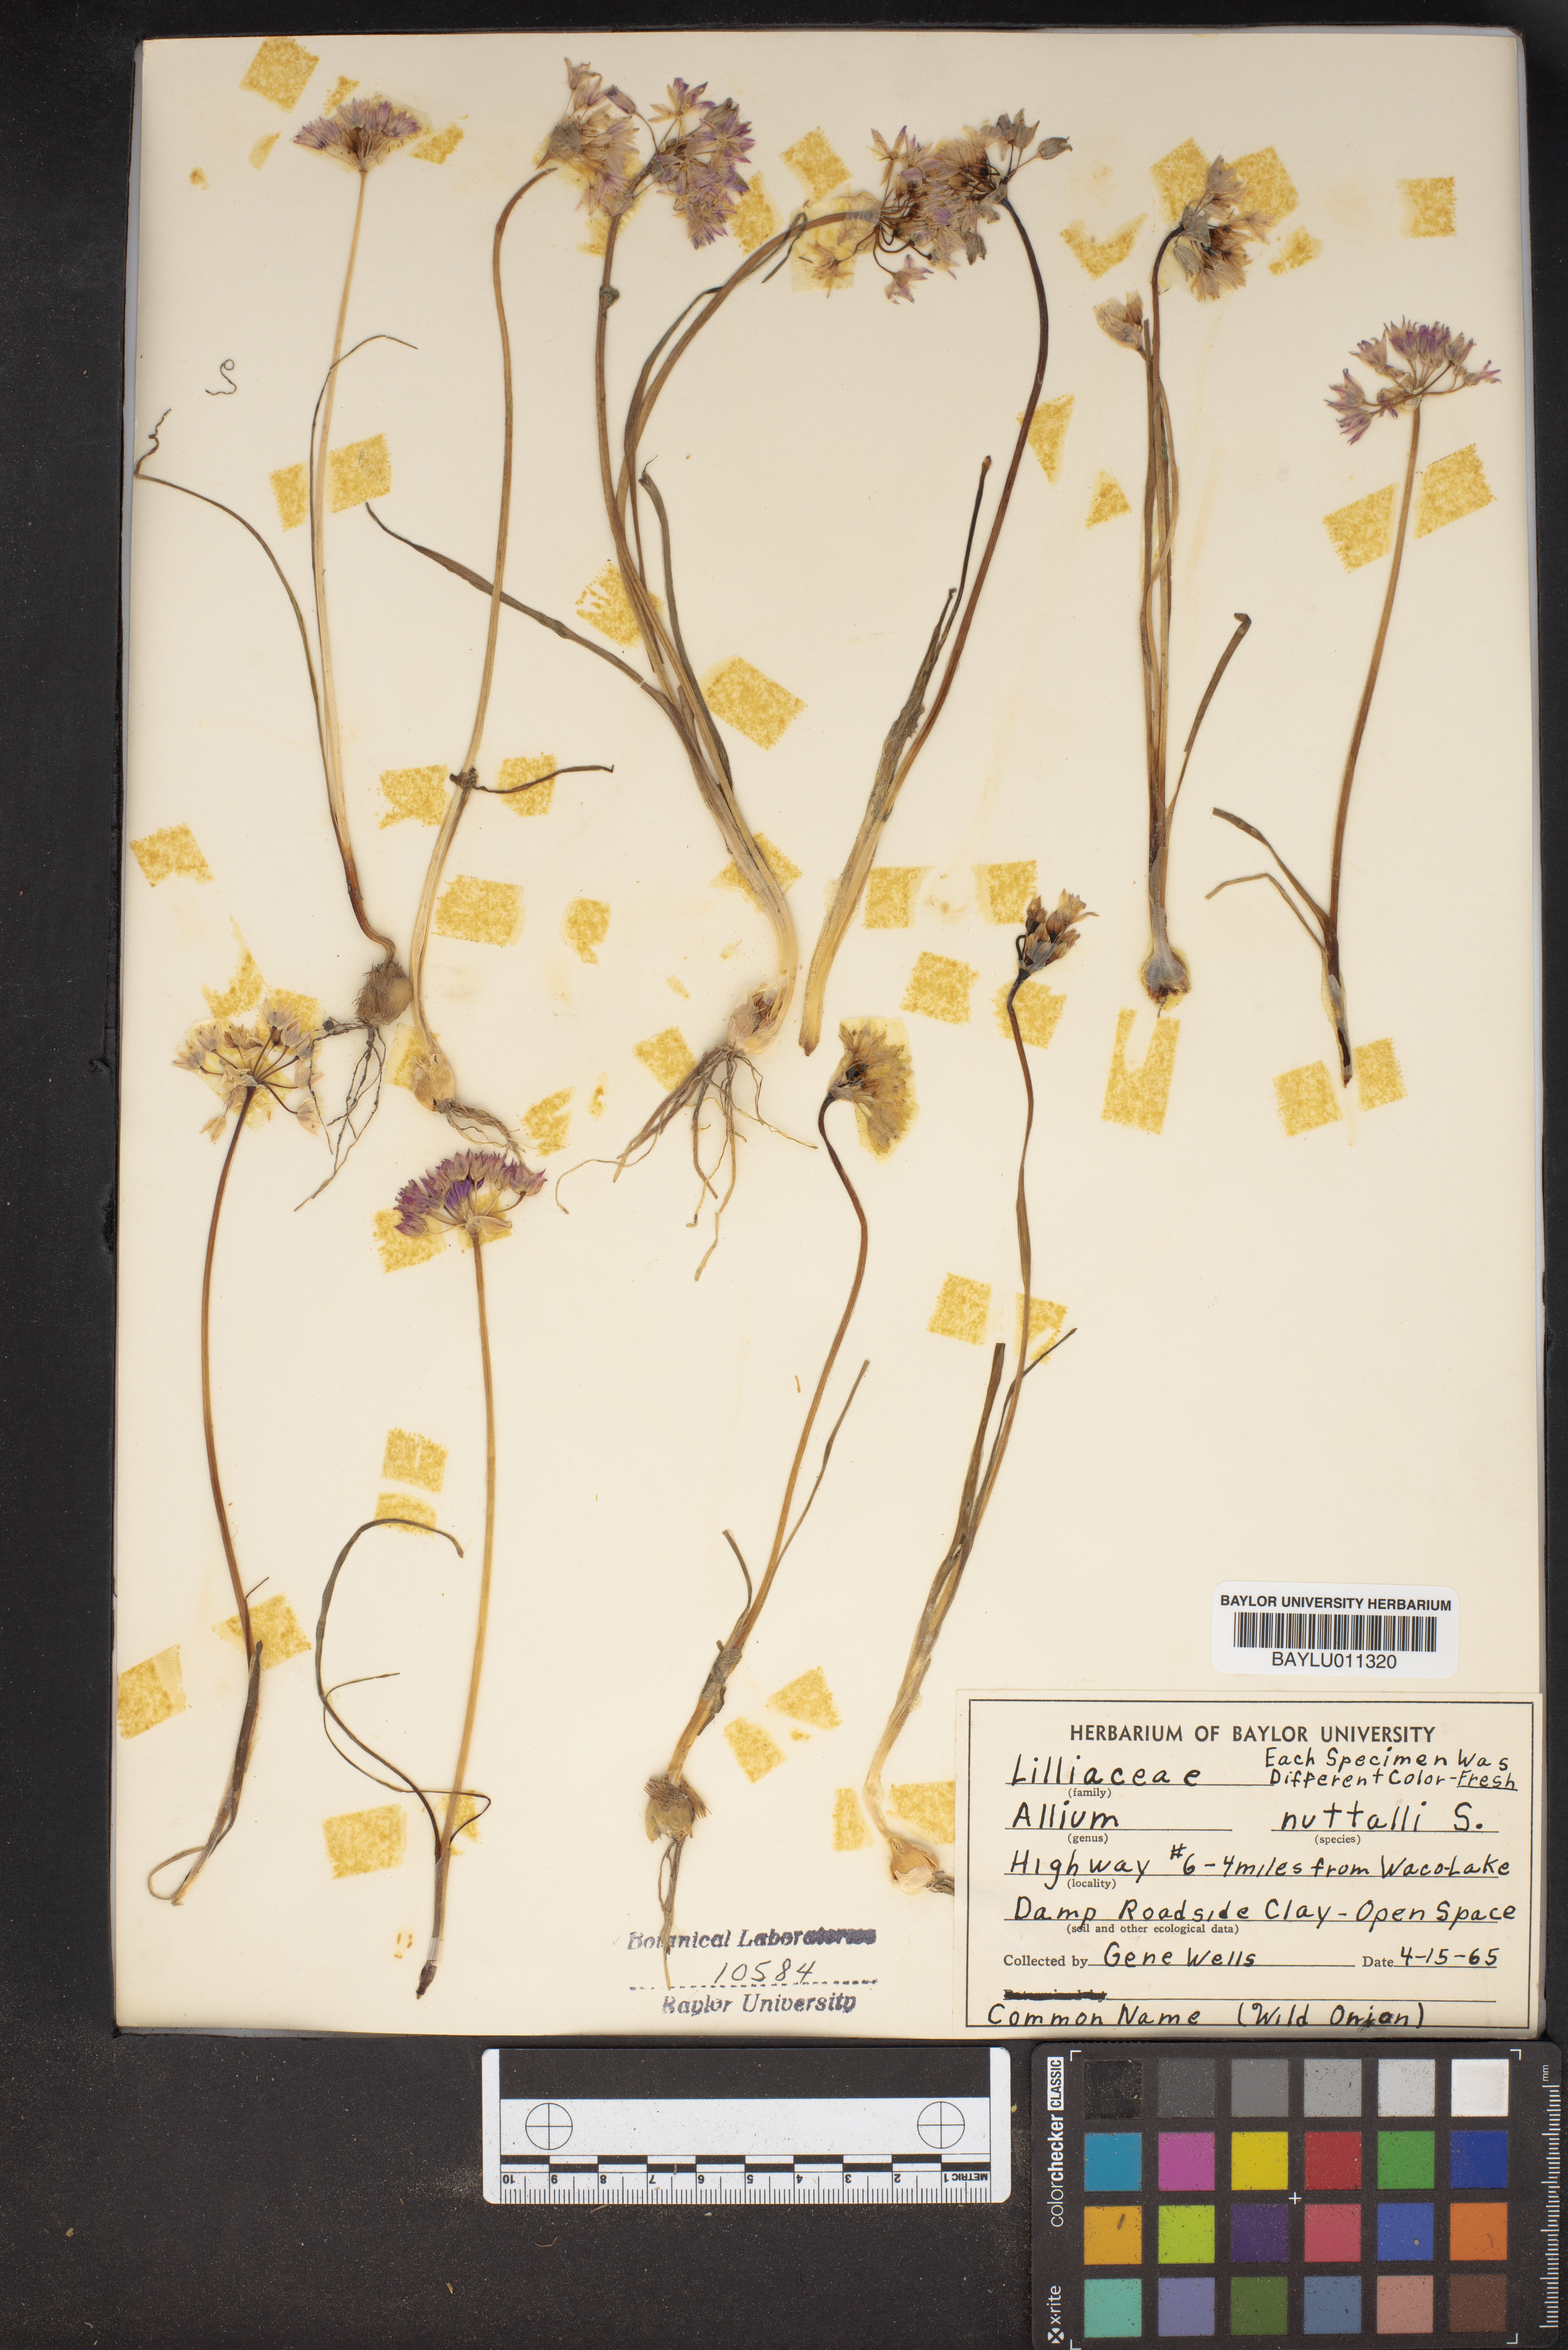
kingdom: Plantae
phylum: Tracheophyta
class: Liliopsida
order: Asparagales
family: Amaryllidaceae
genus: Allium
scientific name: Allium drummondii
